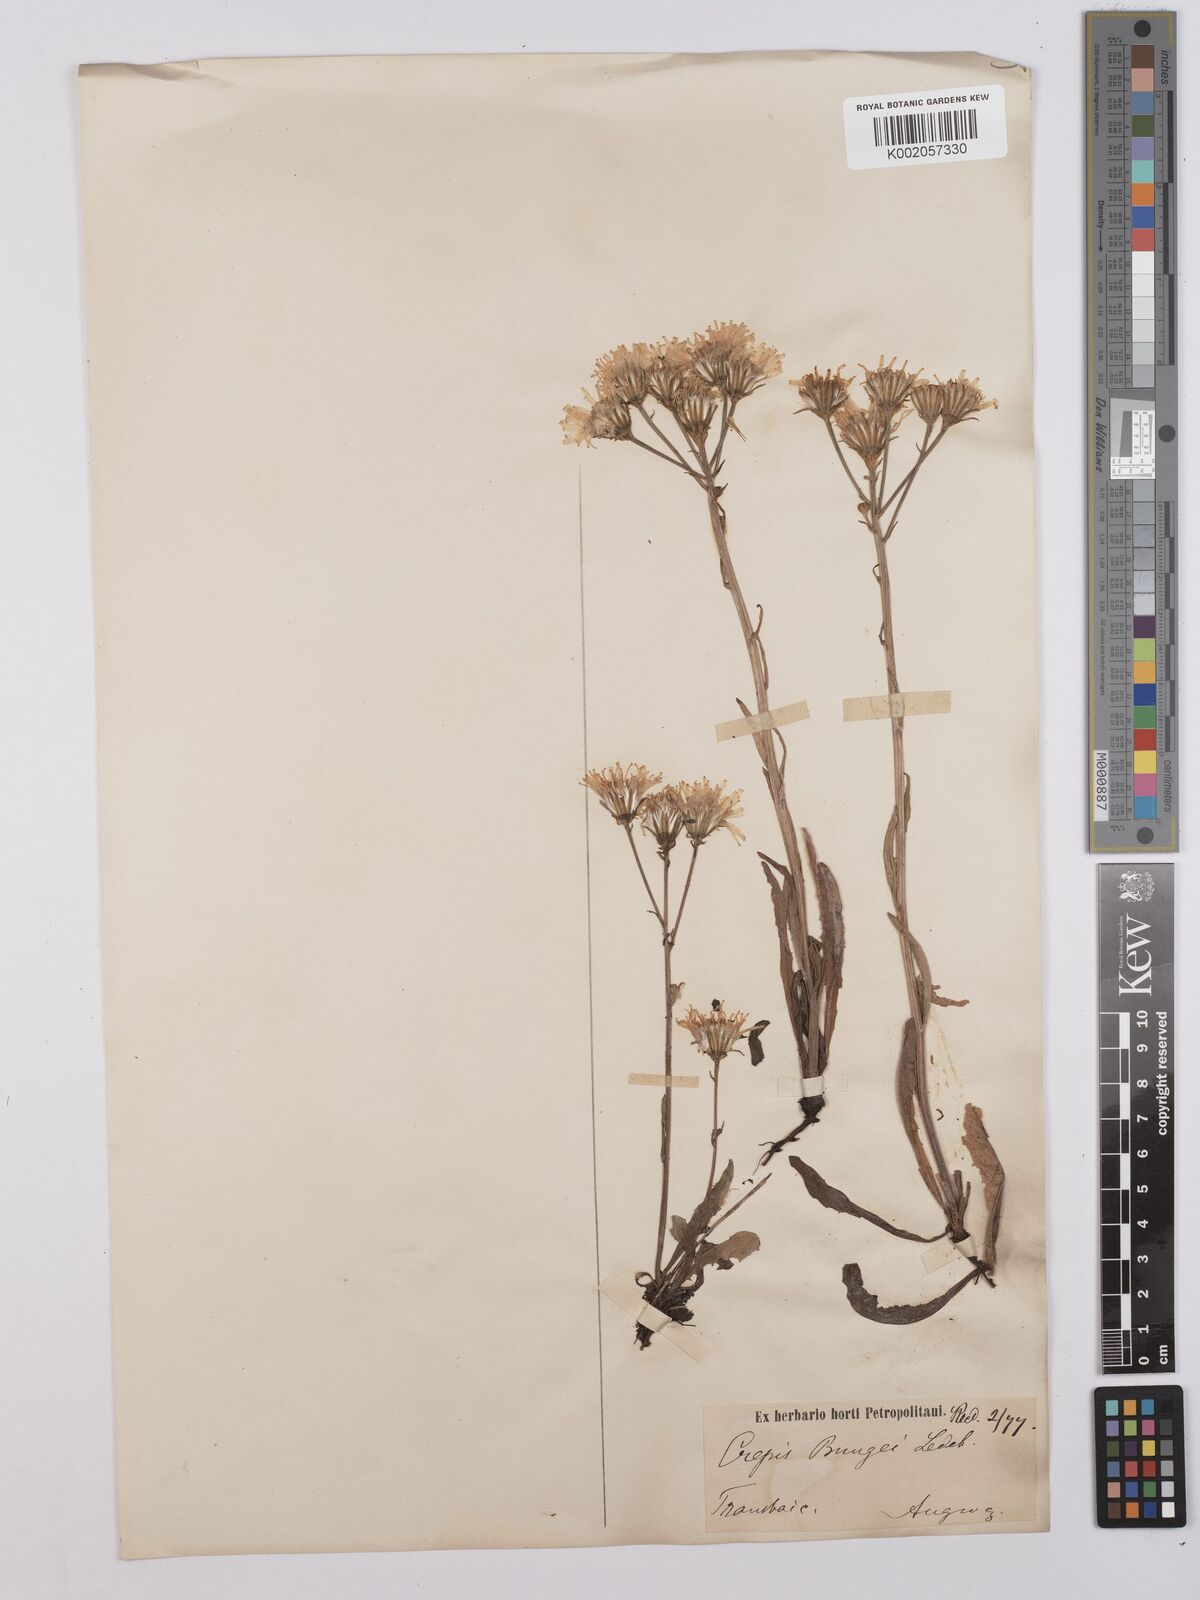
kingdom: Plantae
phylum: Tracheophyta
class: Magnoliopsida
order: Asterales
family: Asteraceae
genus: Crepis
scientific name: Crepis bungei
